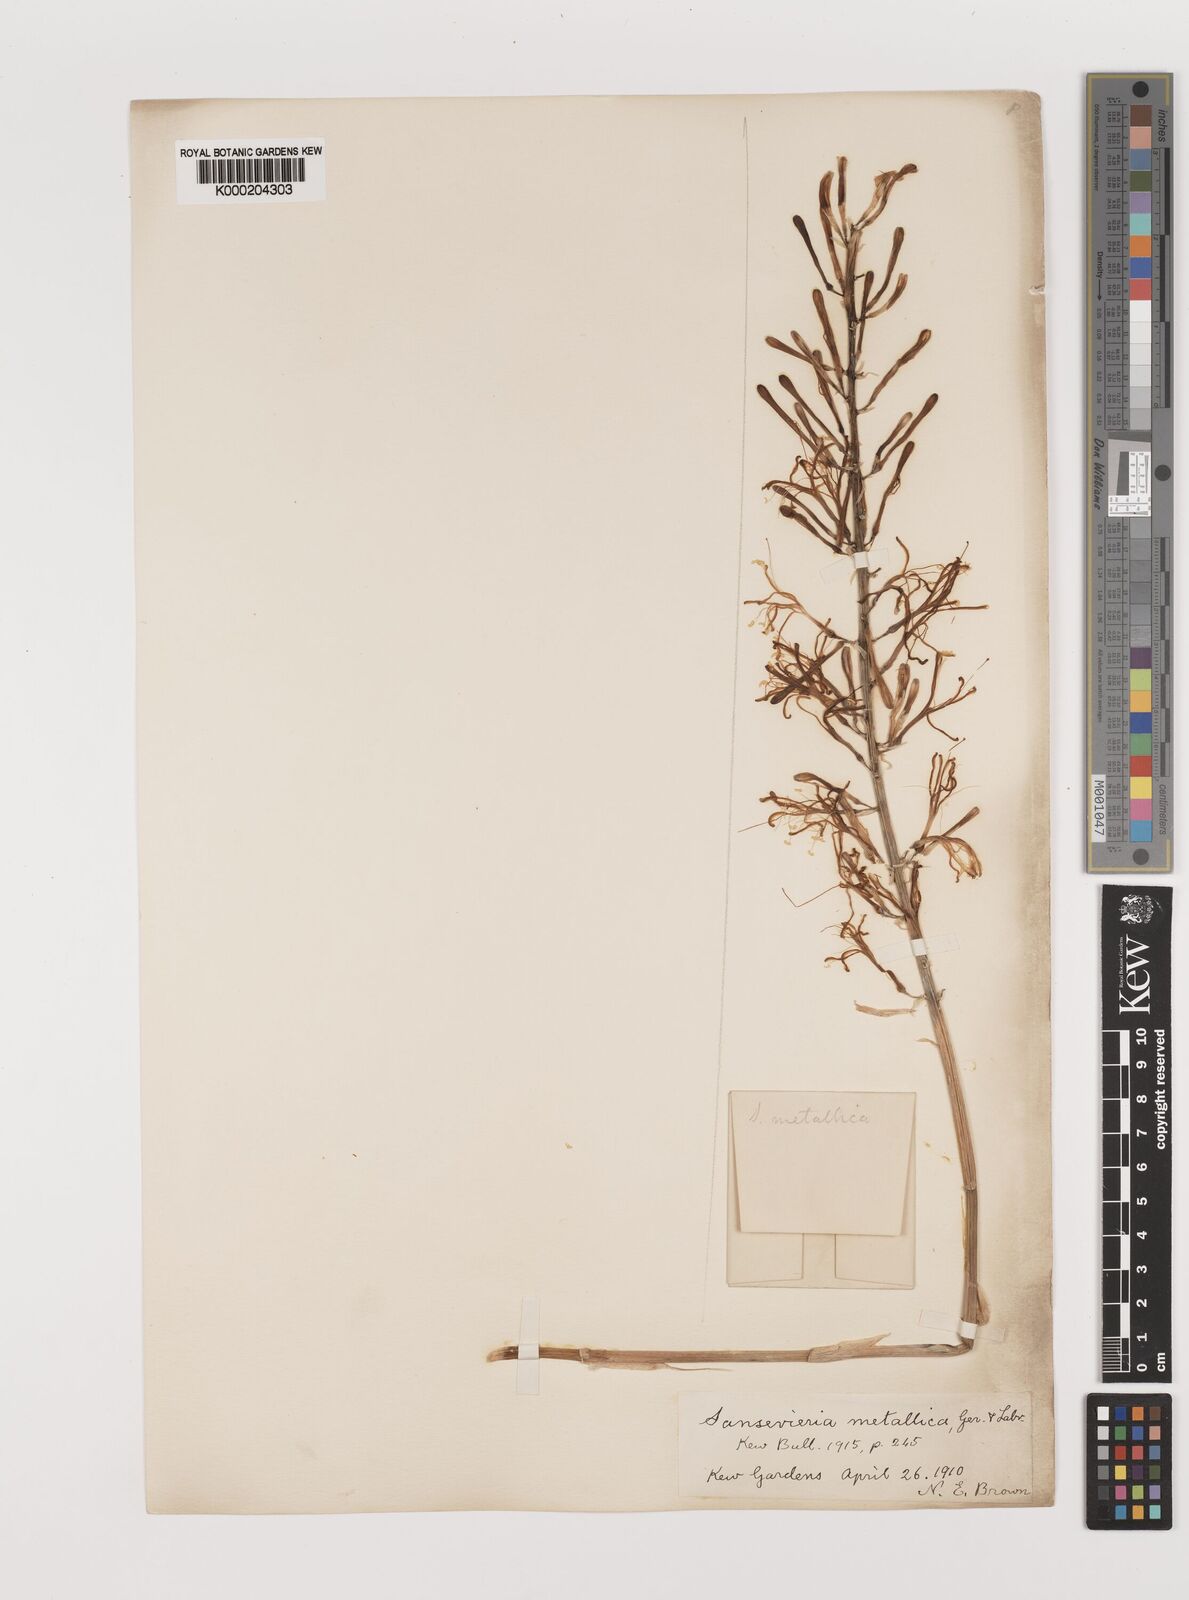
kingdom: Plantae
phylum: Tracheophyta
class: Liliopsida
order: Asparagales
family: Asparagaceae
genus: Dracaena
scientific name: Dracaena
